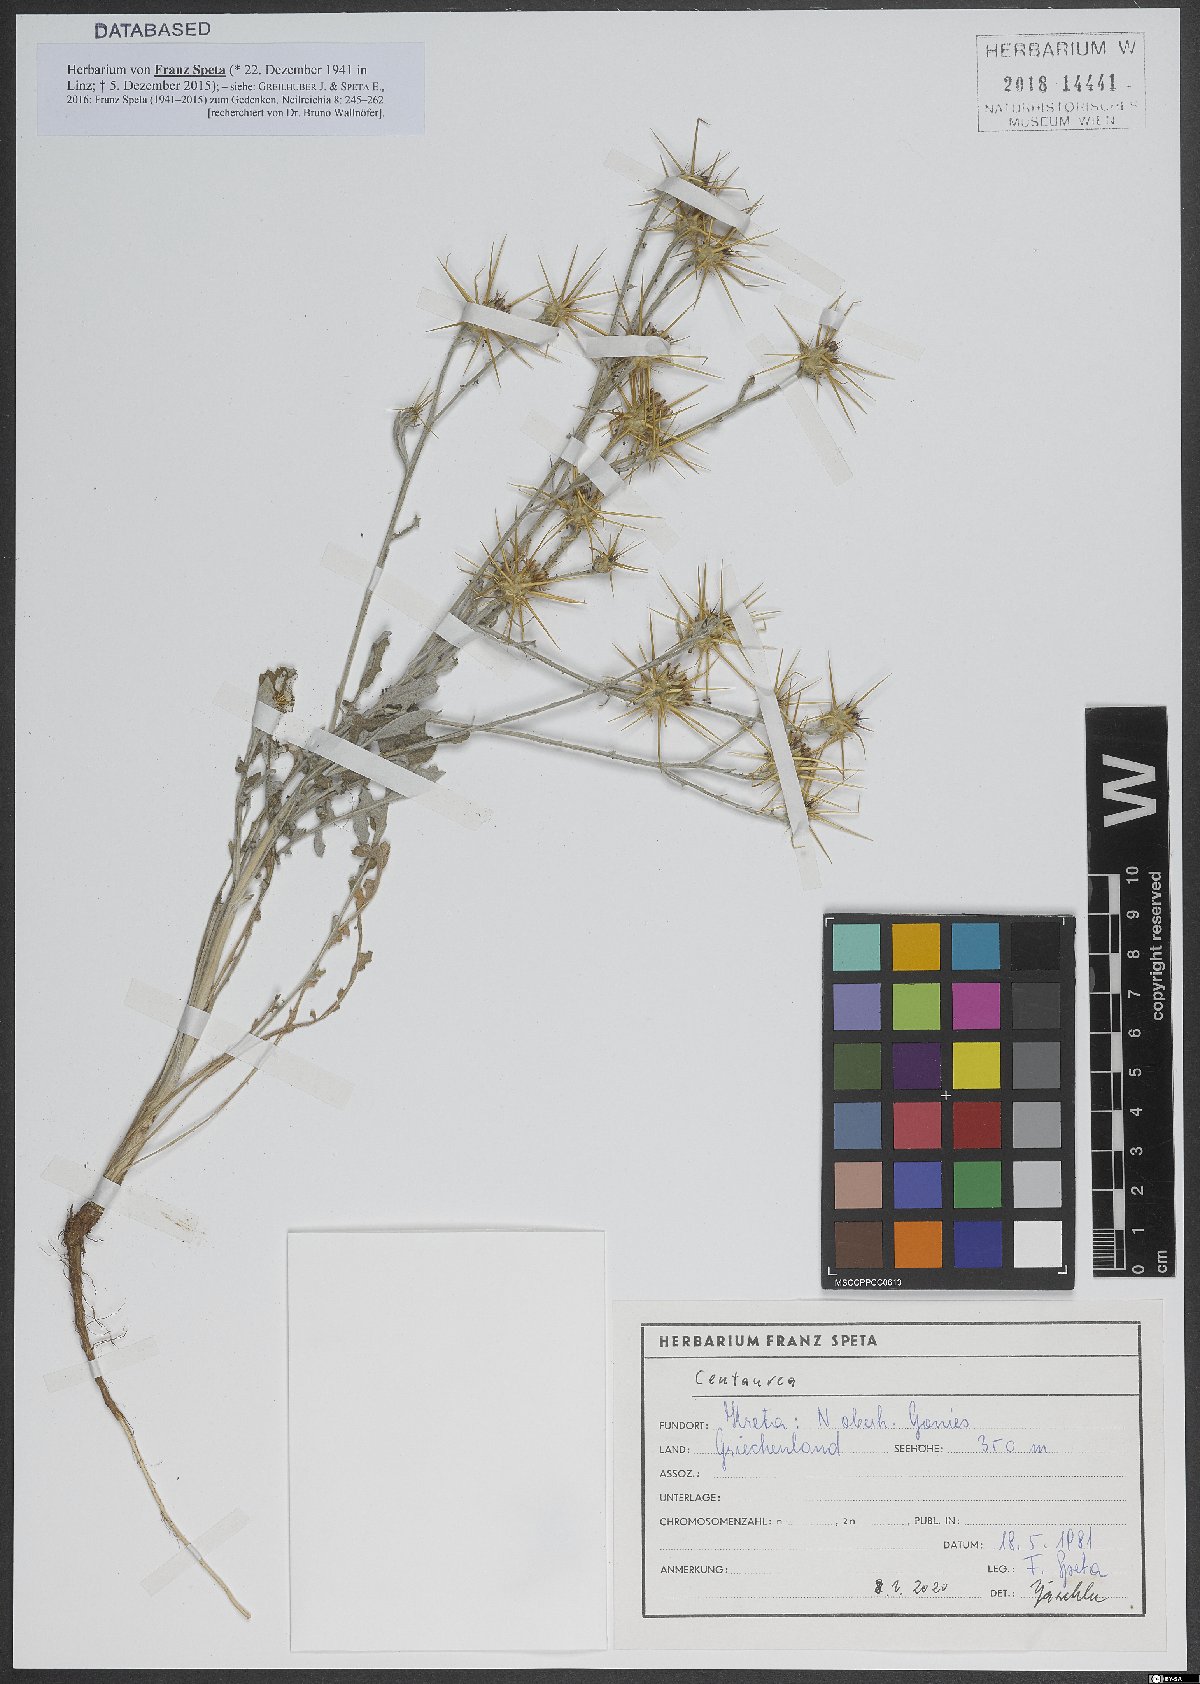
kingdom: Plantae
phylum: Tracheophyta
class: Magnoliopsida
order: Asterales
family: Asteraceae
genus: Centaurea
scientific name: Centaurea
